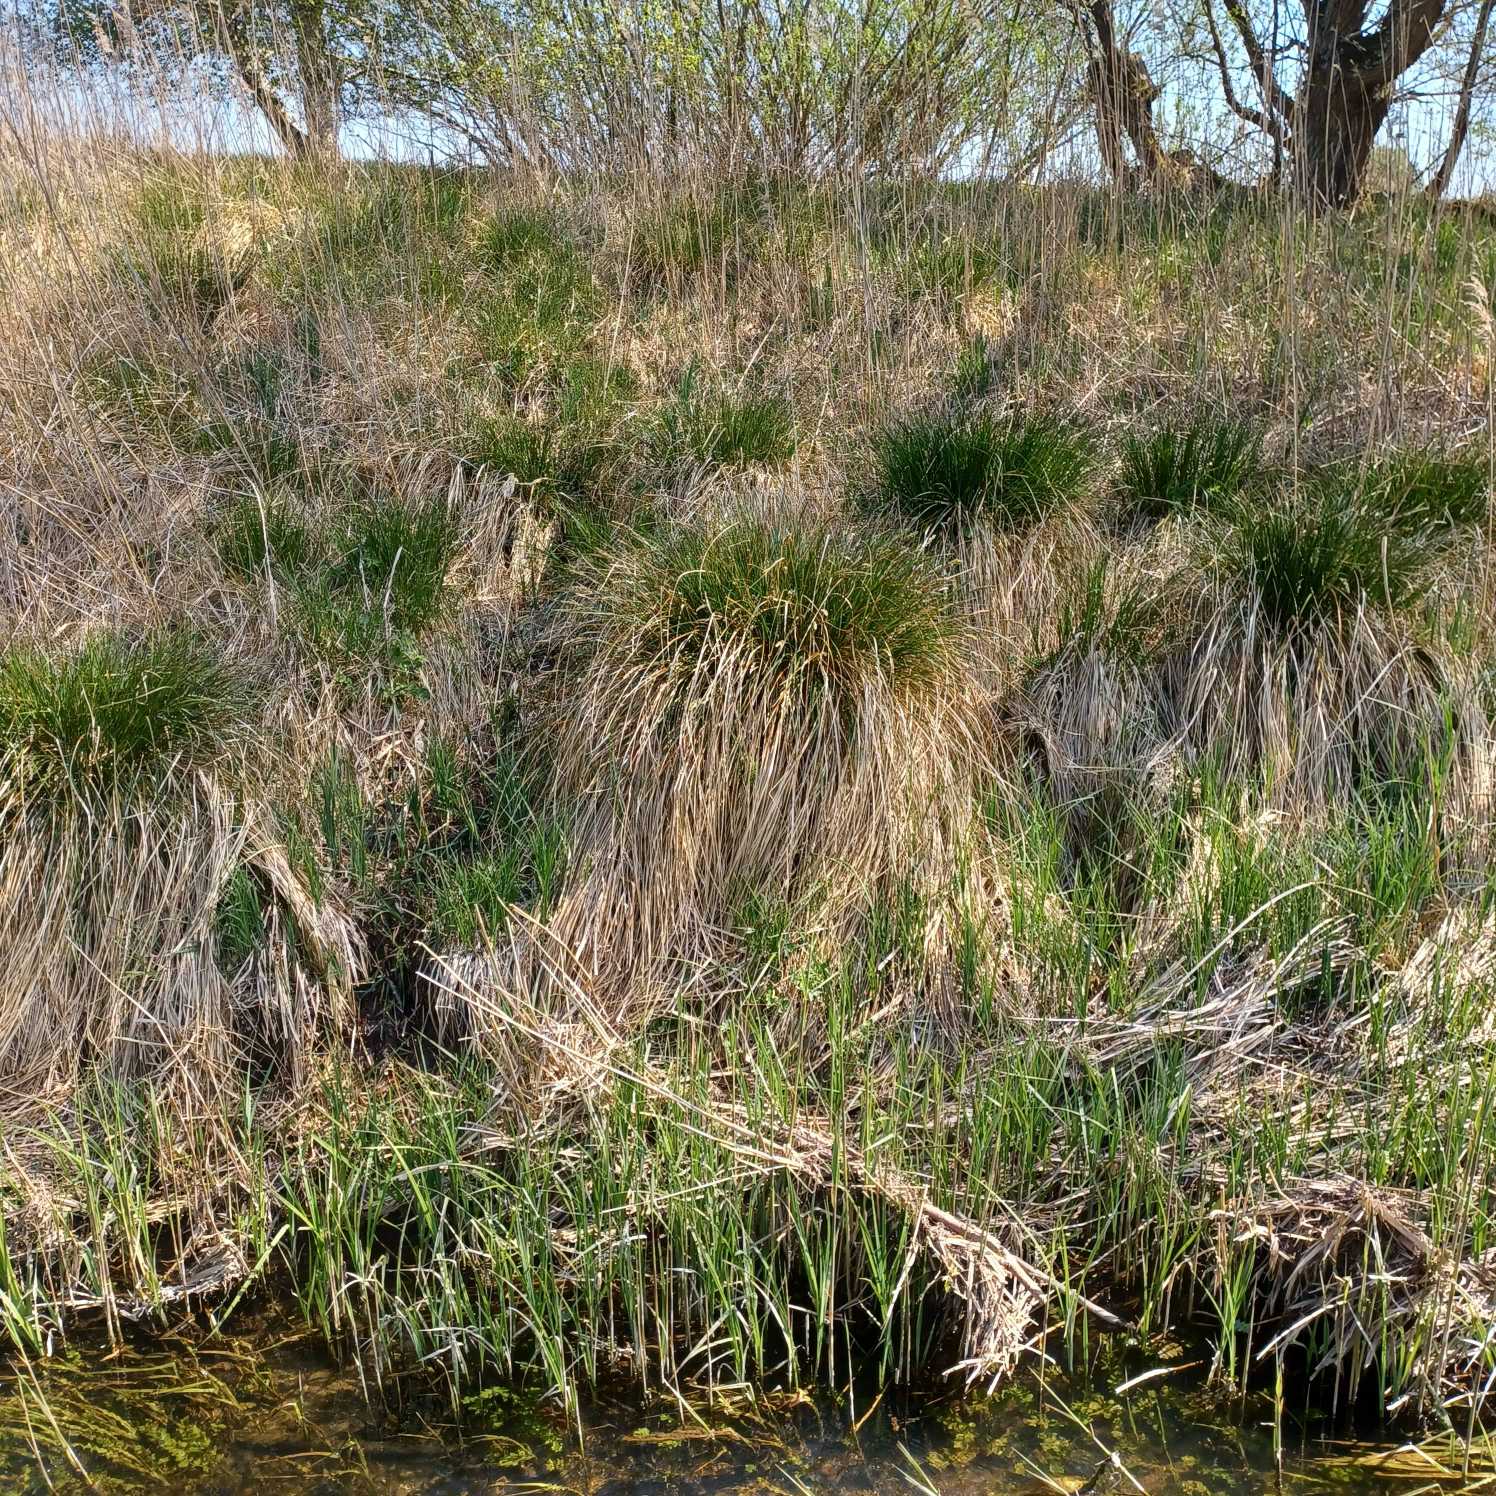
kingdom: Plantae
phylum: Tracheophyta
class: Liliopsida
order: Poales
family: Cyperaceae
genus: Carex
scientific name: Carex paniculata
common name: Top-star
